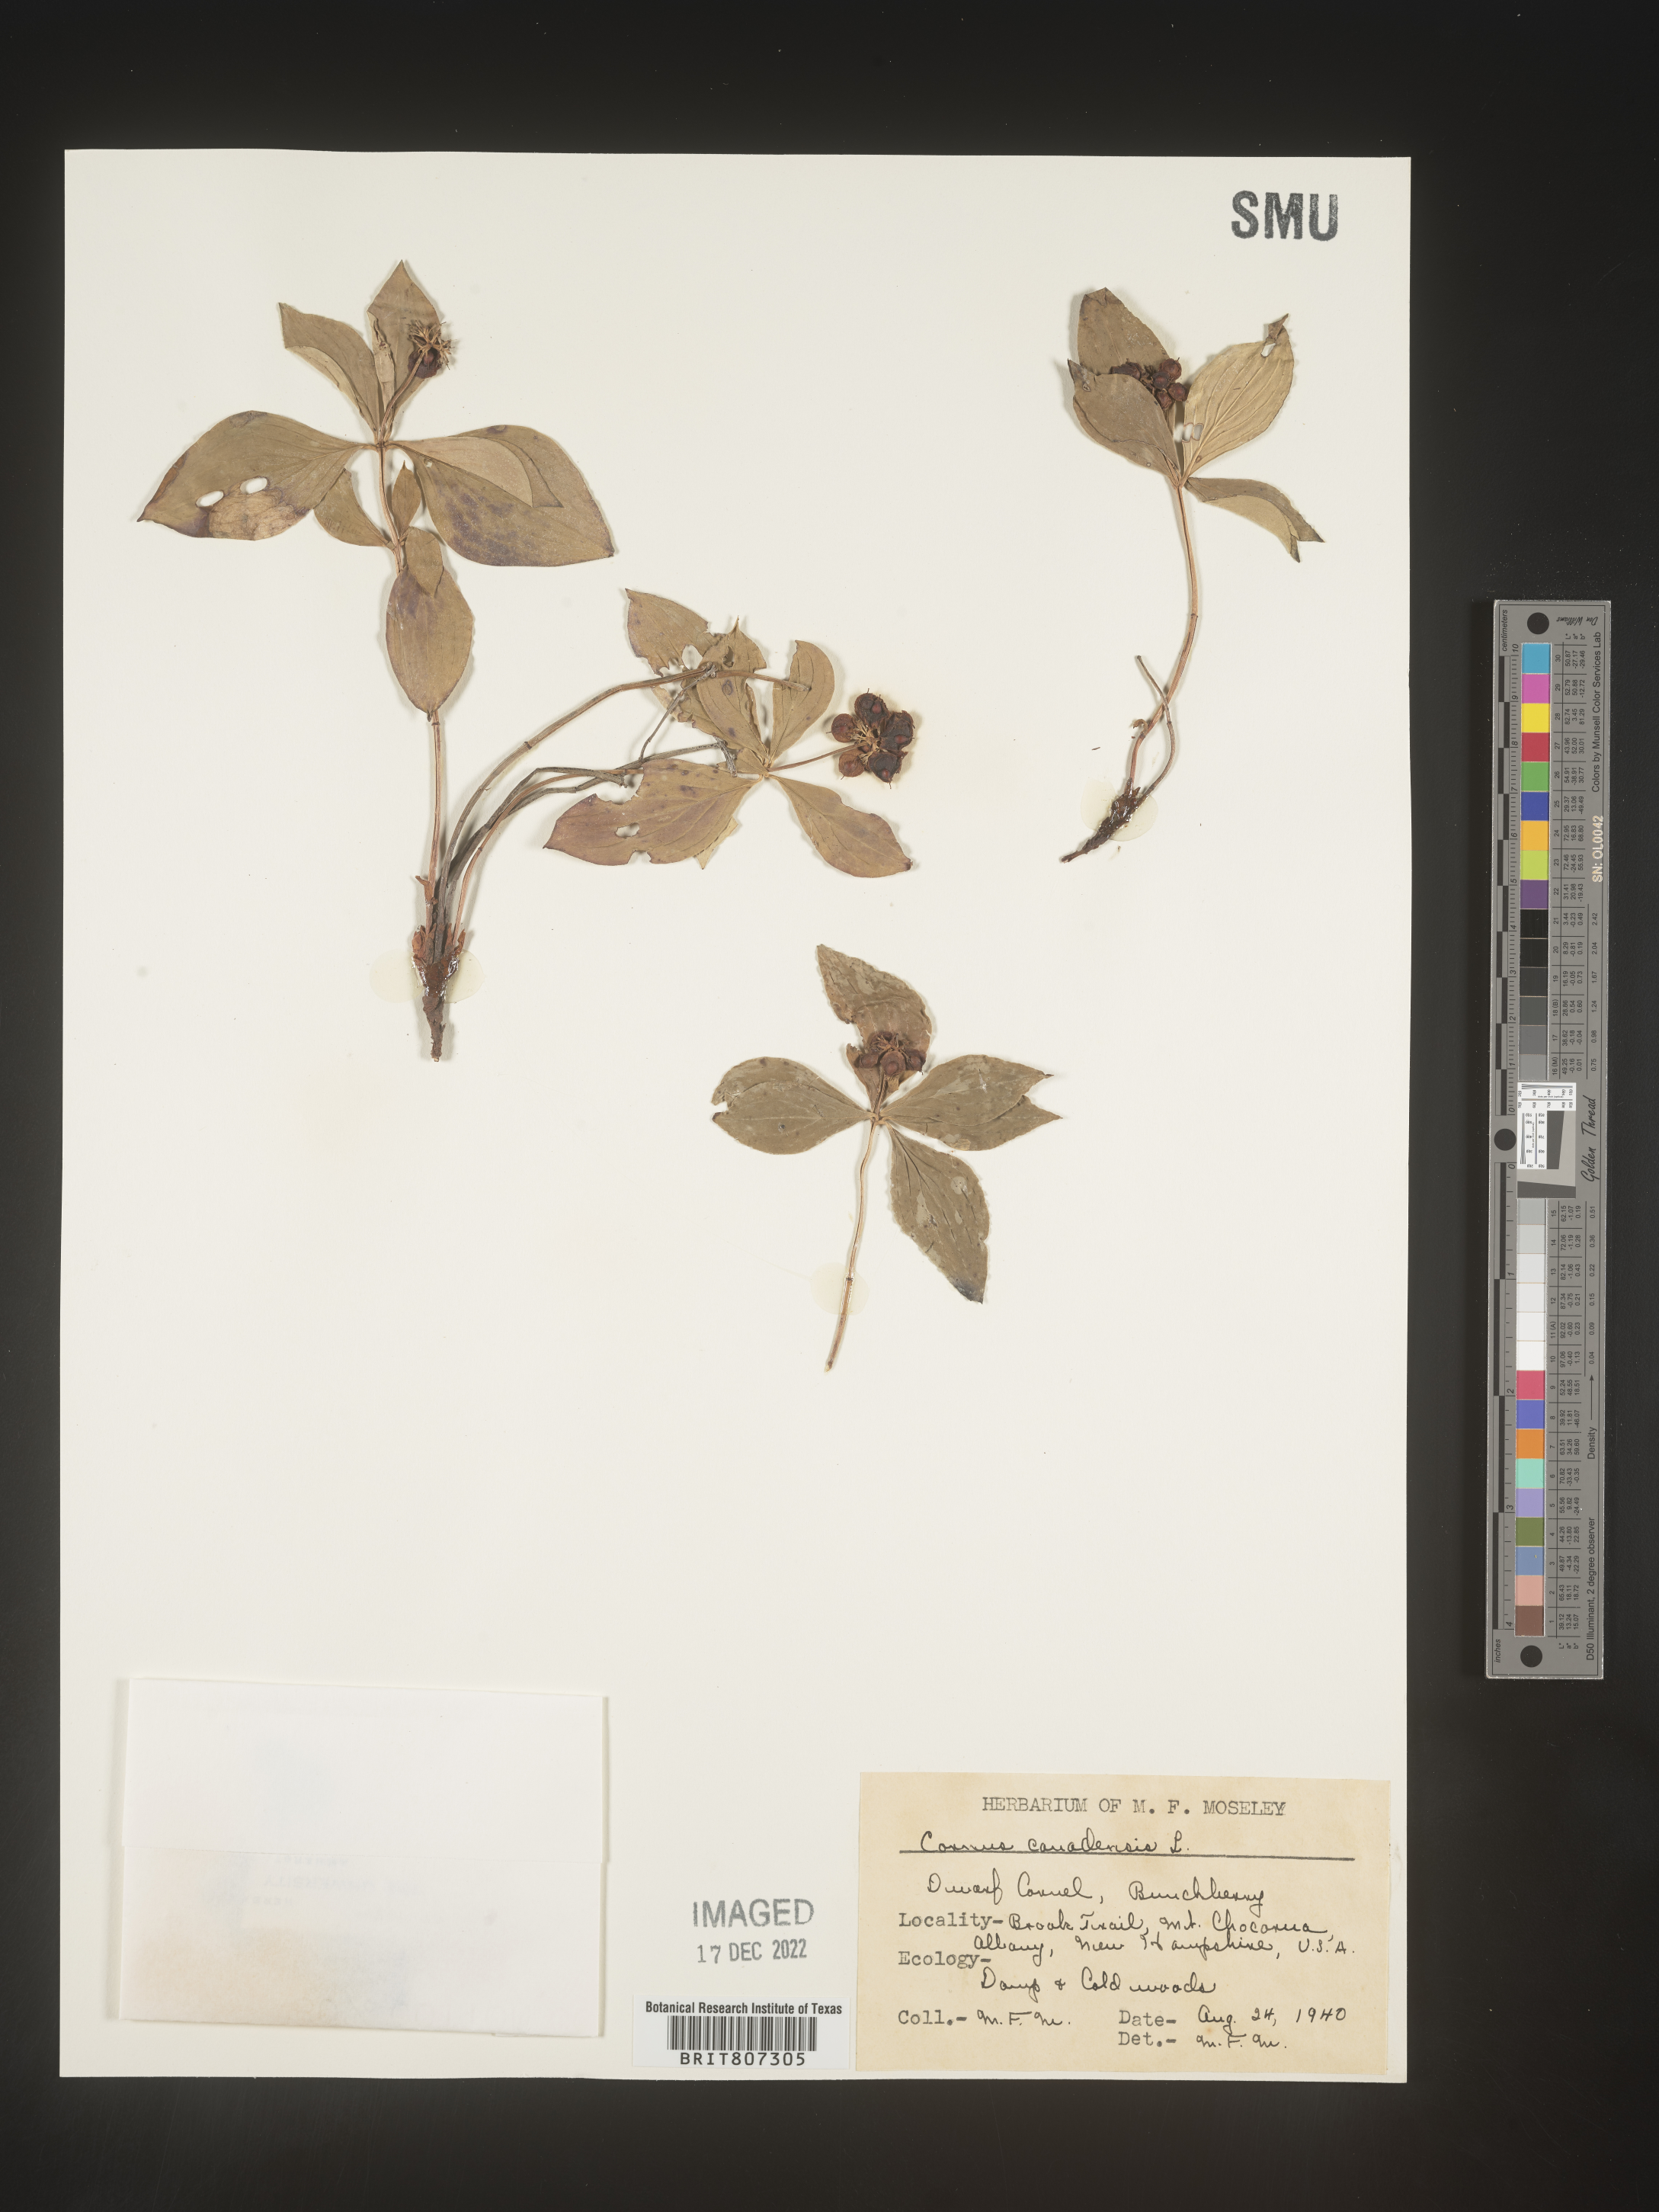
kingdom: Plantae
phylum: Tracheophyta
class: Magnoliopsida
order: Cornales
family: Cornaceae
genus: Cornus
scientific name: Cornus canadensis
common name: Creeping dogwood
